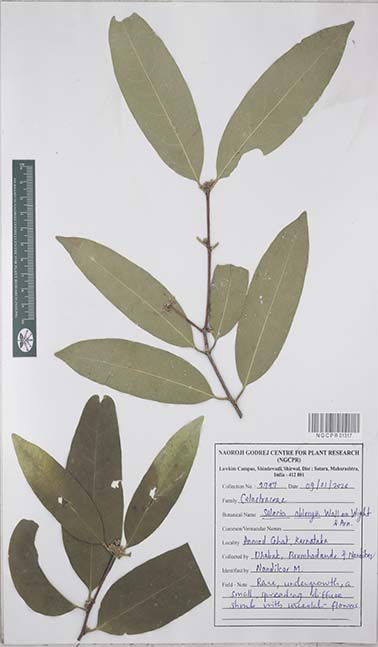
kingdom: Plantae
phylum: Tracheophyta
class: Magnoliopsida
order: Celastrales
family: Celastraceae
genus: Salacia
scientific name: Salacia oblonga
